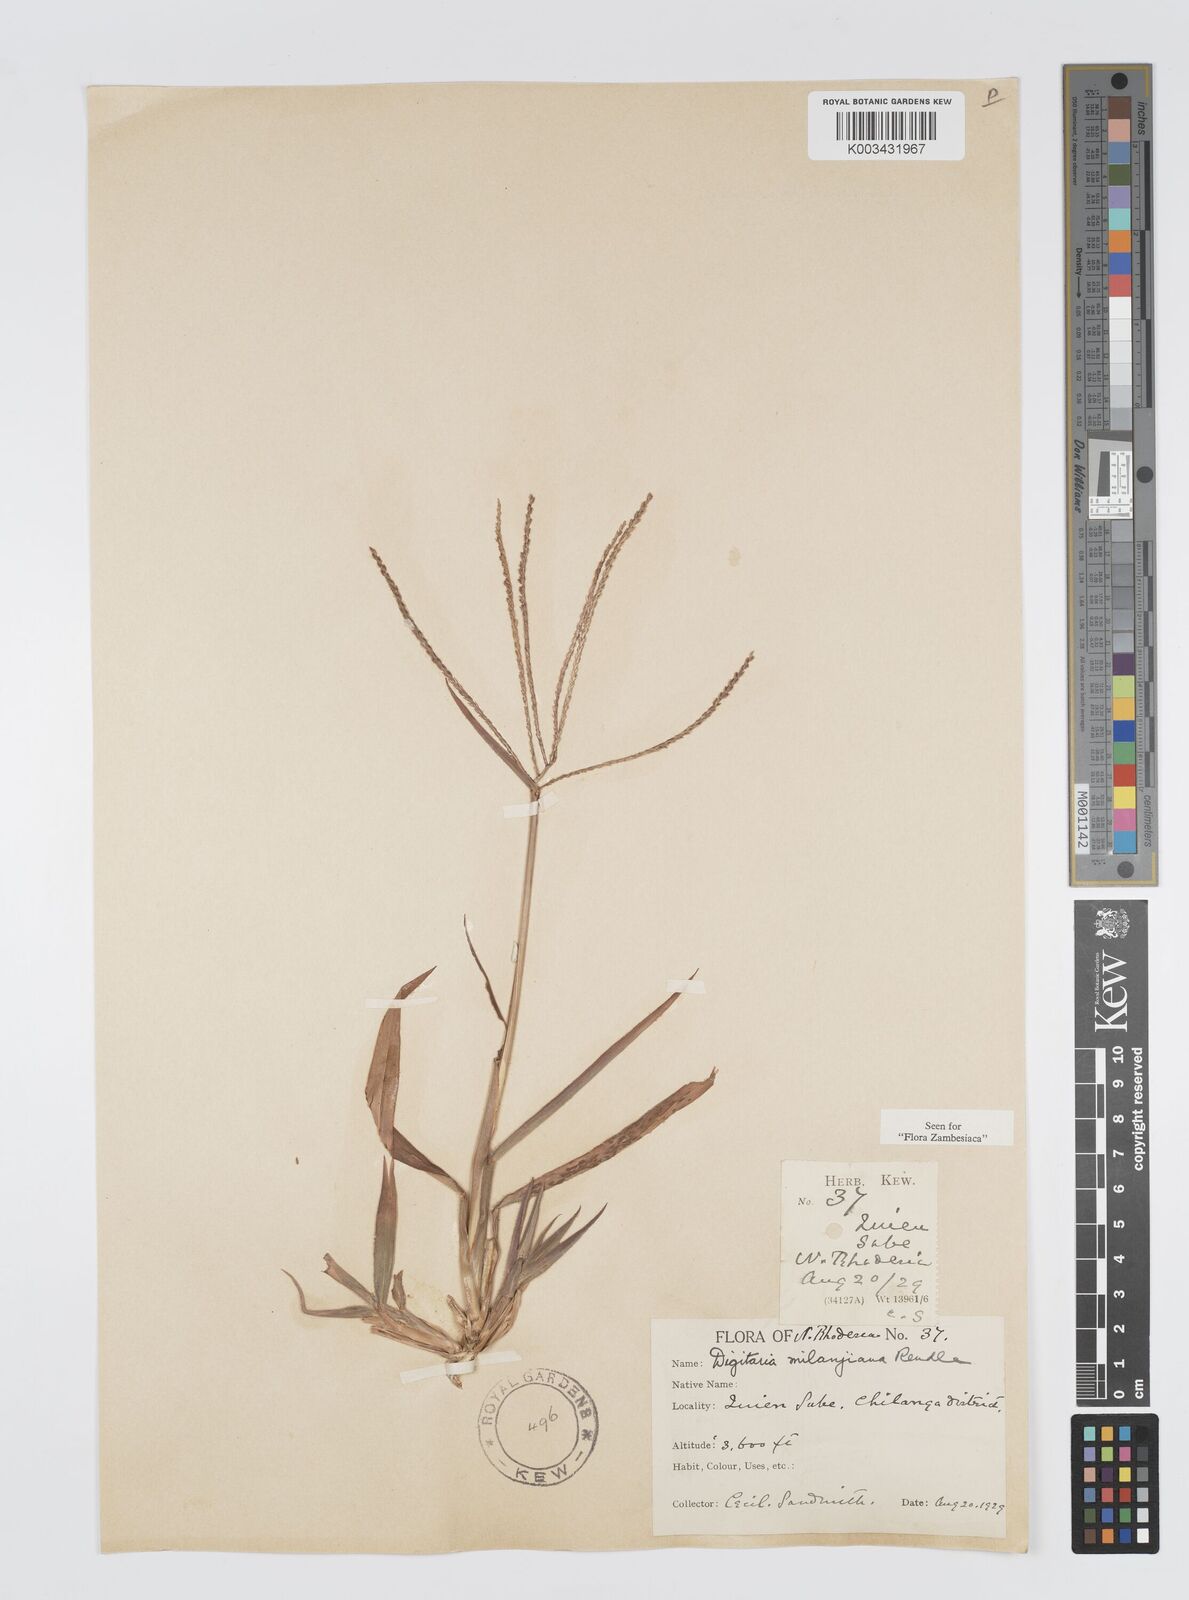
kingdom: Plantae
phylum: Tracheophyta
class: Liliopsida
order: Poales
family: Poaceae
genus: Digitaria
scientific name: Digitaria milanjiana
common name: Madagascar crabgrass
